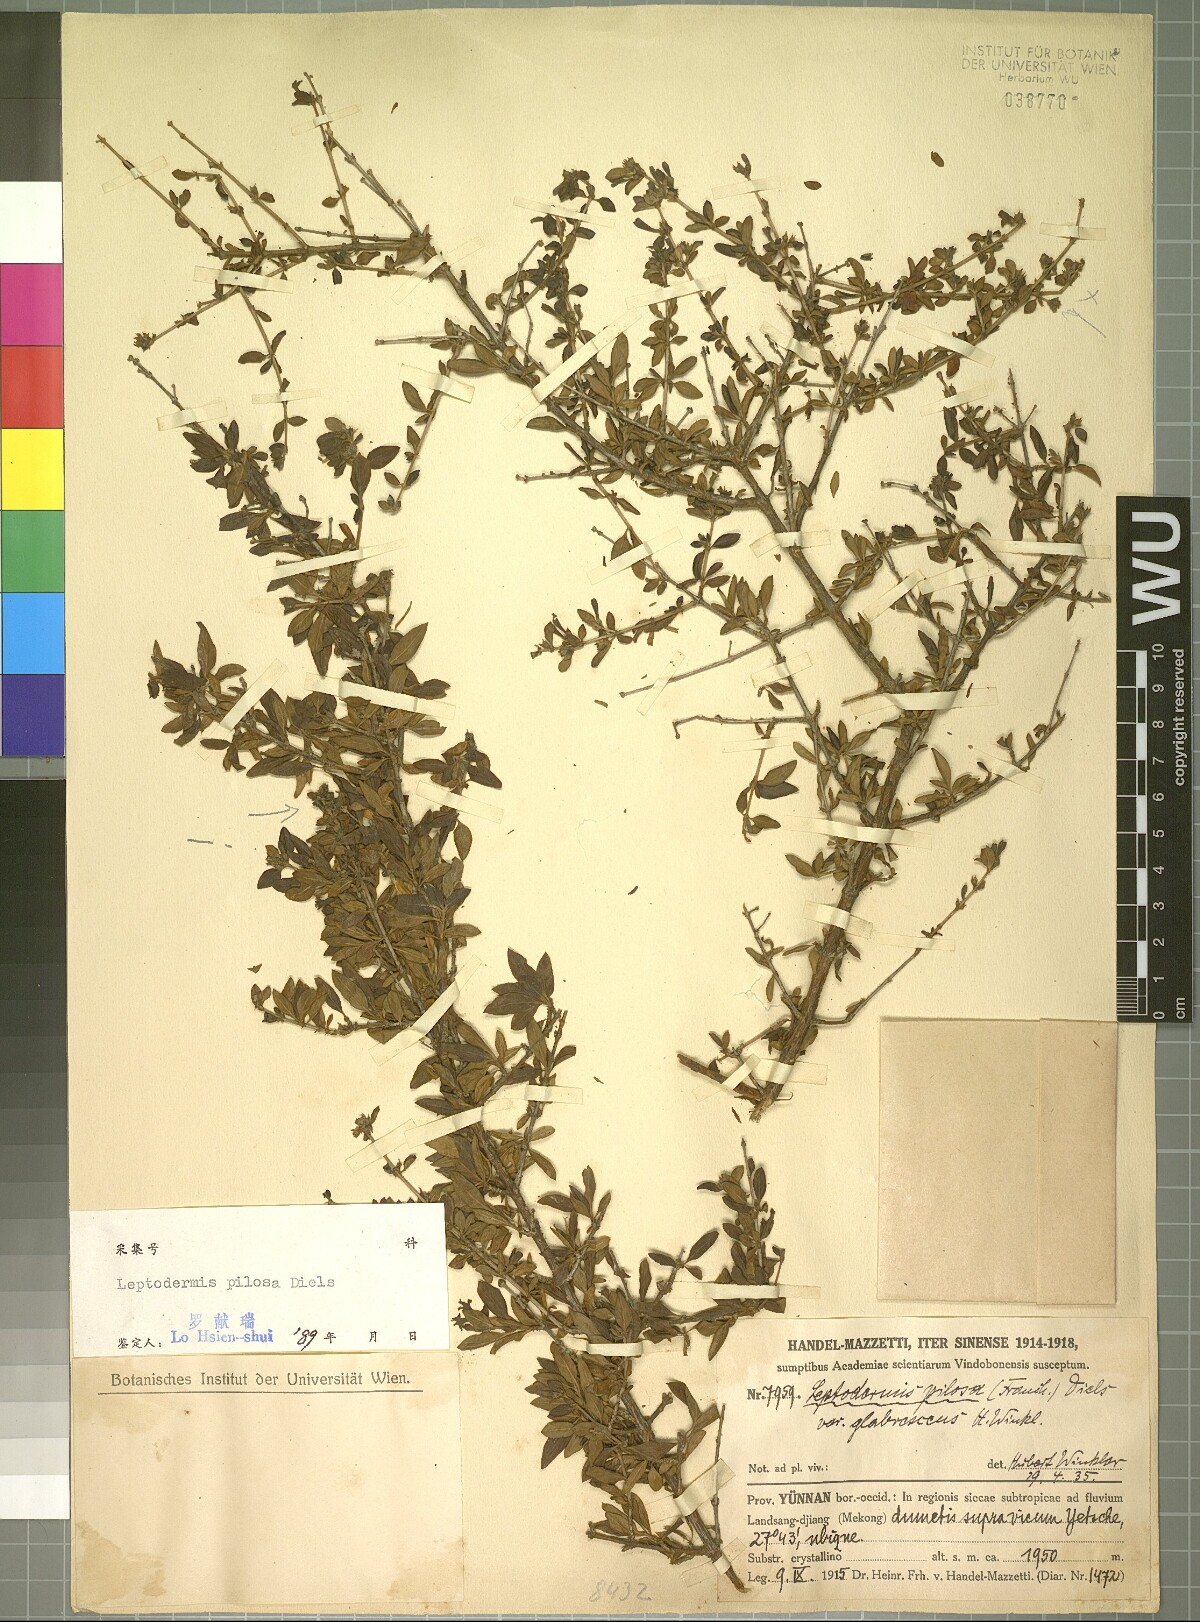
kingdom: Plantae
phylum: Tracheophyta
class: Magnoliopsida
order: Gentianales
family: Rubiaceae
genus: Leptodermis
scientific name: Leptodermis pilosa
